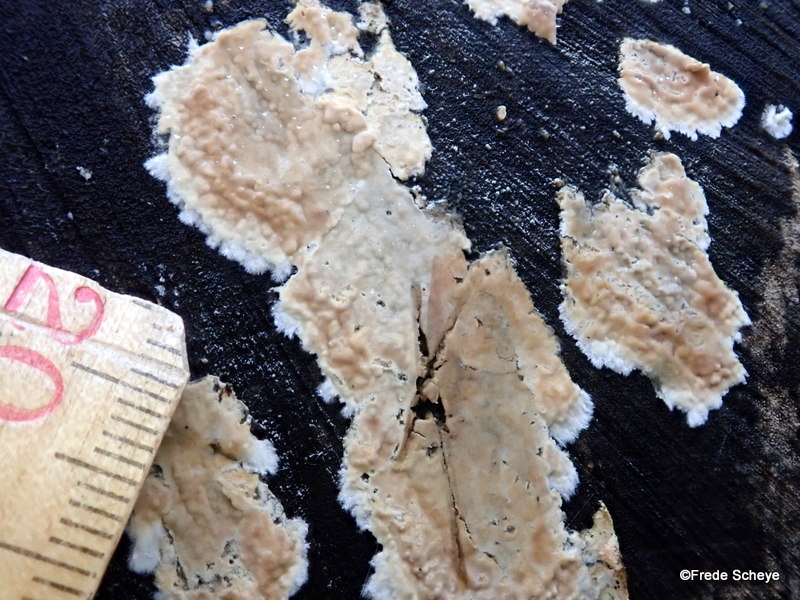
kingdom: Fungi
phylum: Basidiomycota
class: Agaricomycetes
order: Agaricales
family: Physalacriaceae
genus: Cylindrobasidium
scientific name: Cylindrobasidium evolvens
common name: sprækkehinde
